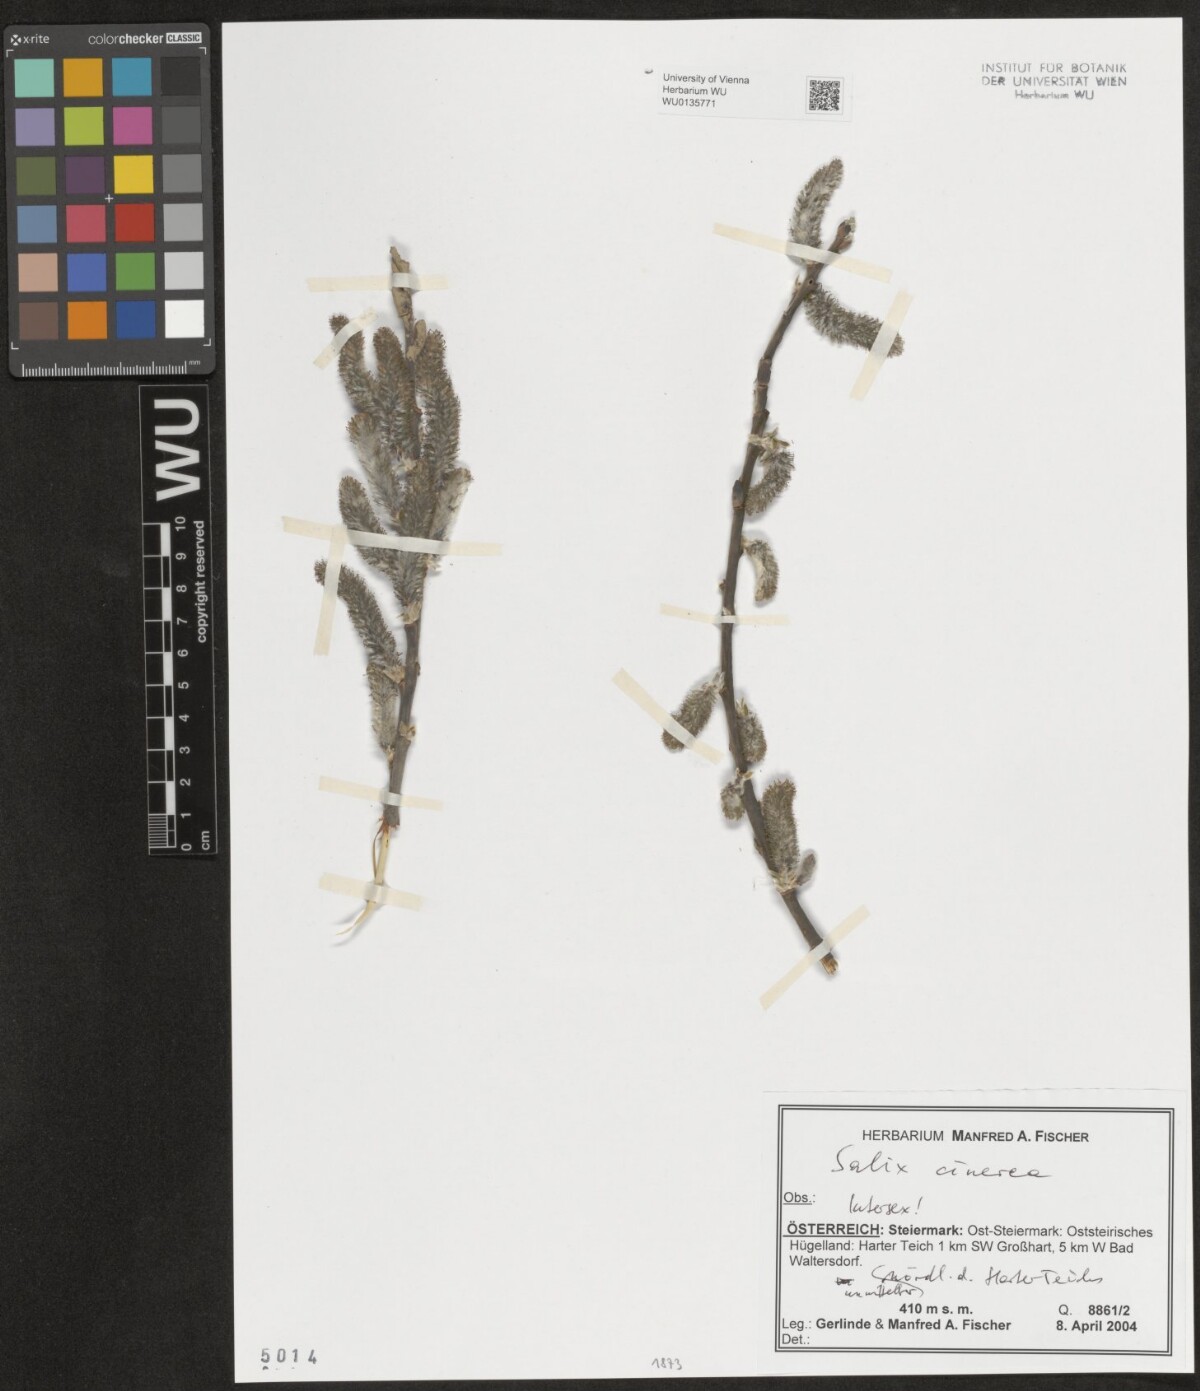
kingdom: Plantae
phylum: Tracheophyta
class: Magnoliopsida
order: Malpighiales
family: Salicaceae
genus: Salix
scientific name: Salix cinerea
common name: Common sallow
